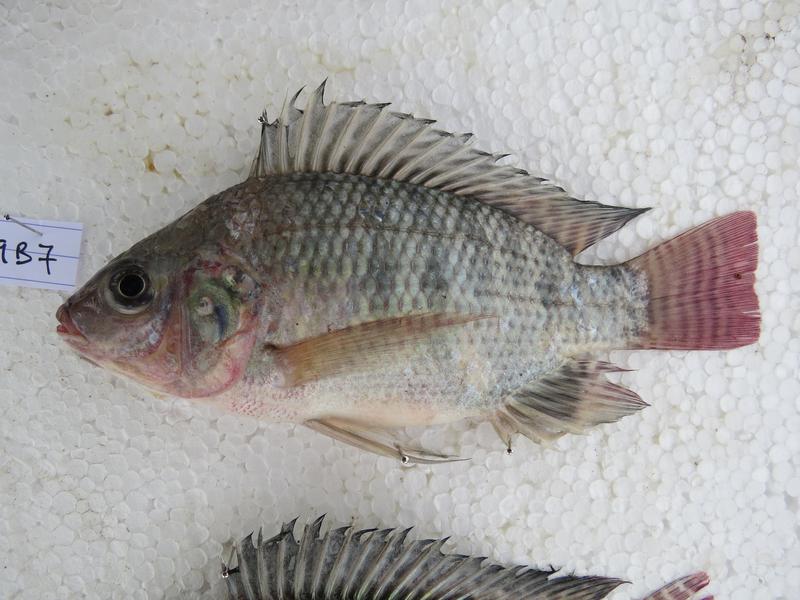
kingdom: Animalia
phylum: Chordata
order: Perciformes
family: Cichlidae
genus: Oreochromis
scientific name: Oreochromis niloticus
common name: Nile tilapia
